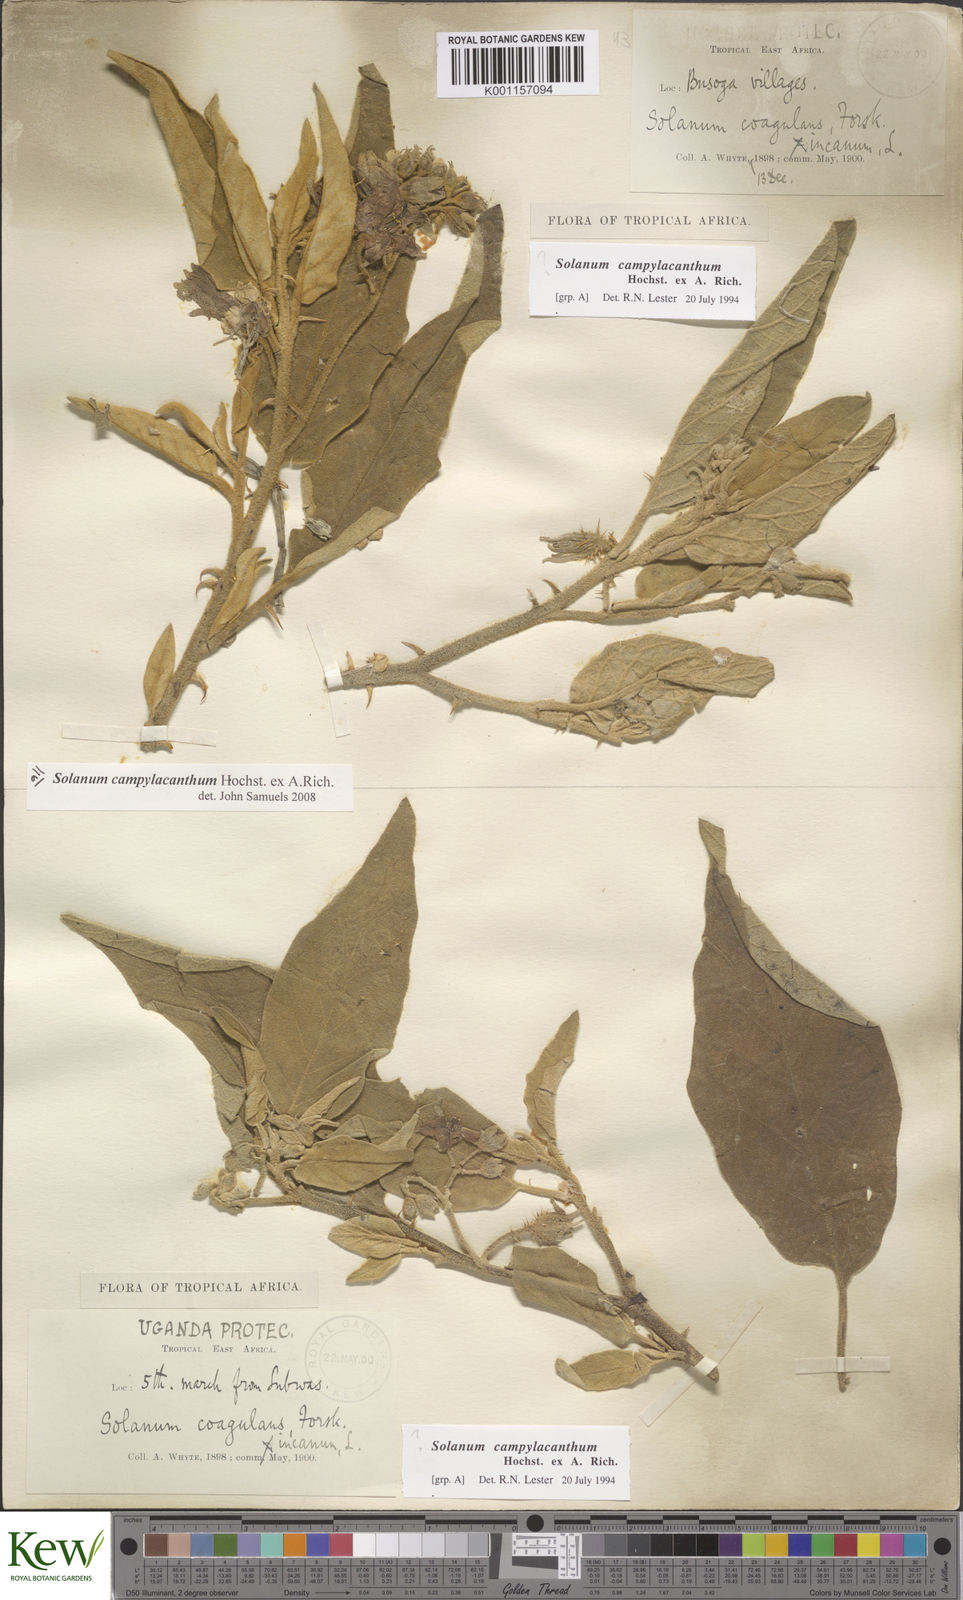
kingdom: Plantae
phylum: Tracheophyta
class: Magnoliopsida
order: Solanales
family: Solanaceae
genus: Solanum
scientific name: Solanum campylacanthum
